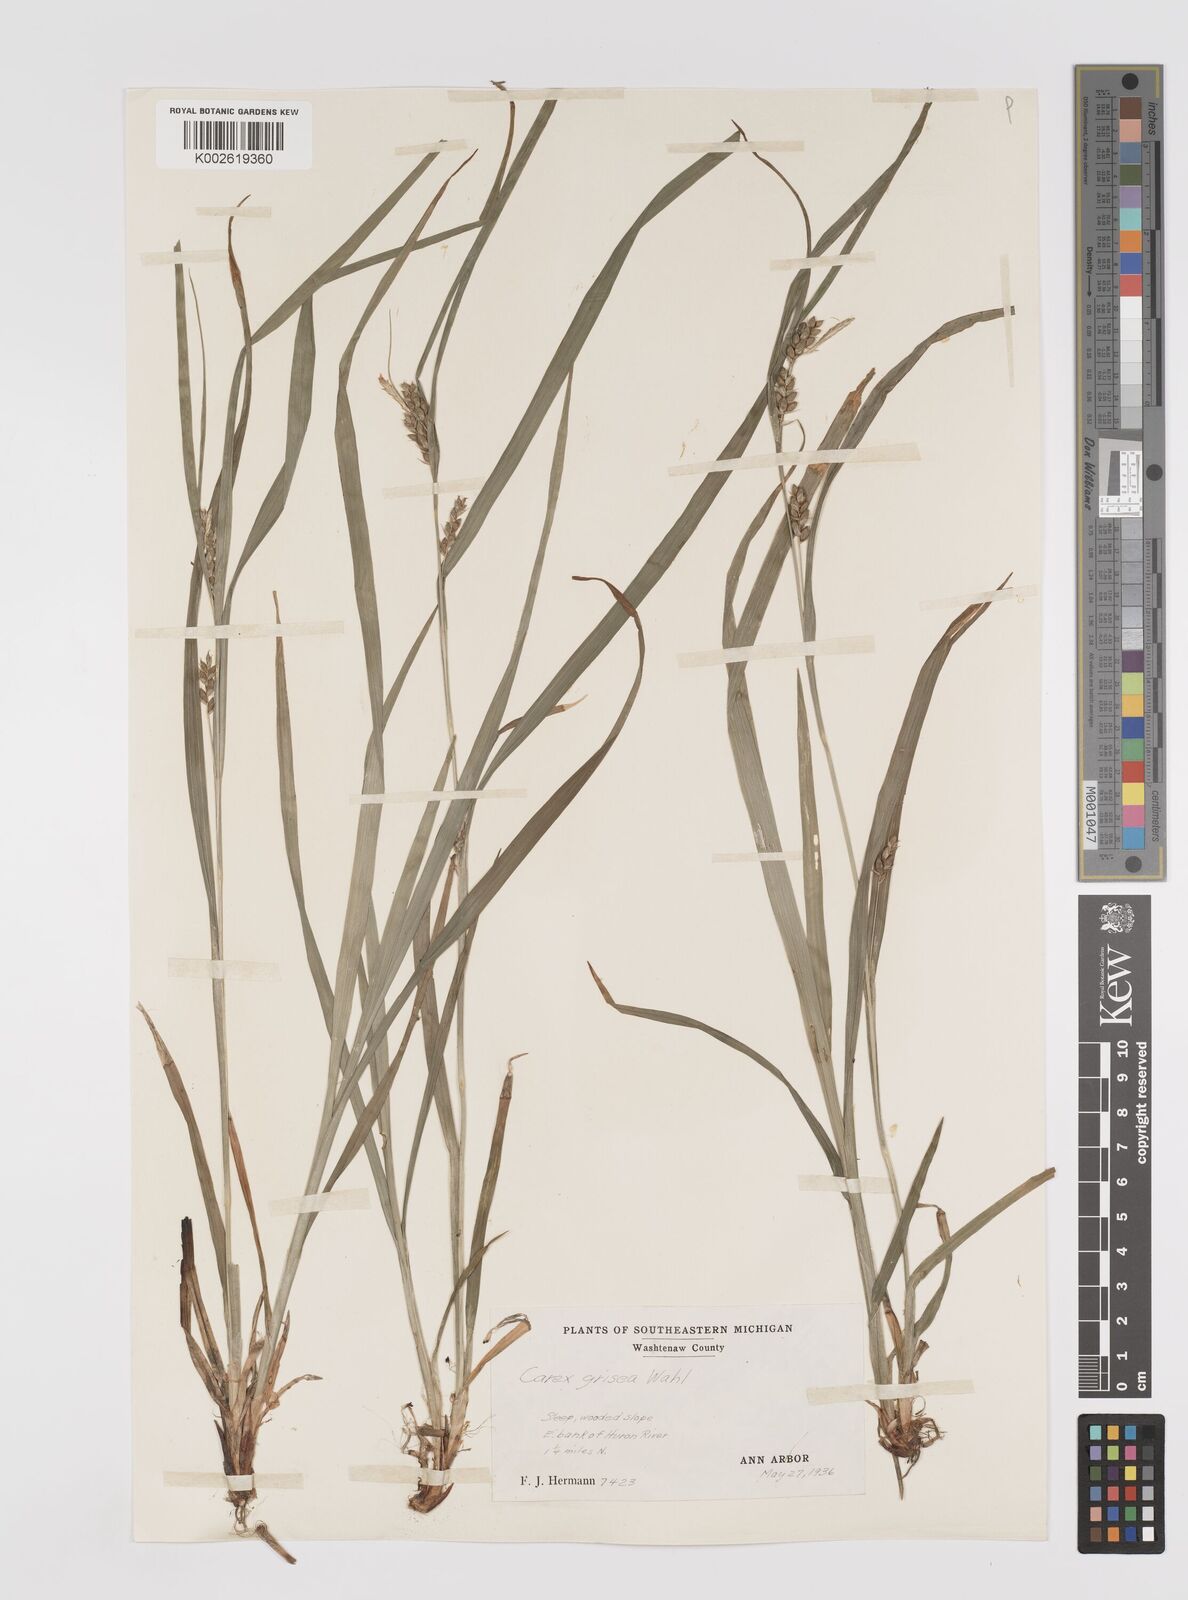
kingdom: Plantae
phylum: Tracheophyta
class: Liliopsida
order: Poales
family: Cyperaceae
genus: Carex
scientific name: Carex grisea
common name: Eastern narrow-leaved sedge
